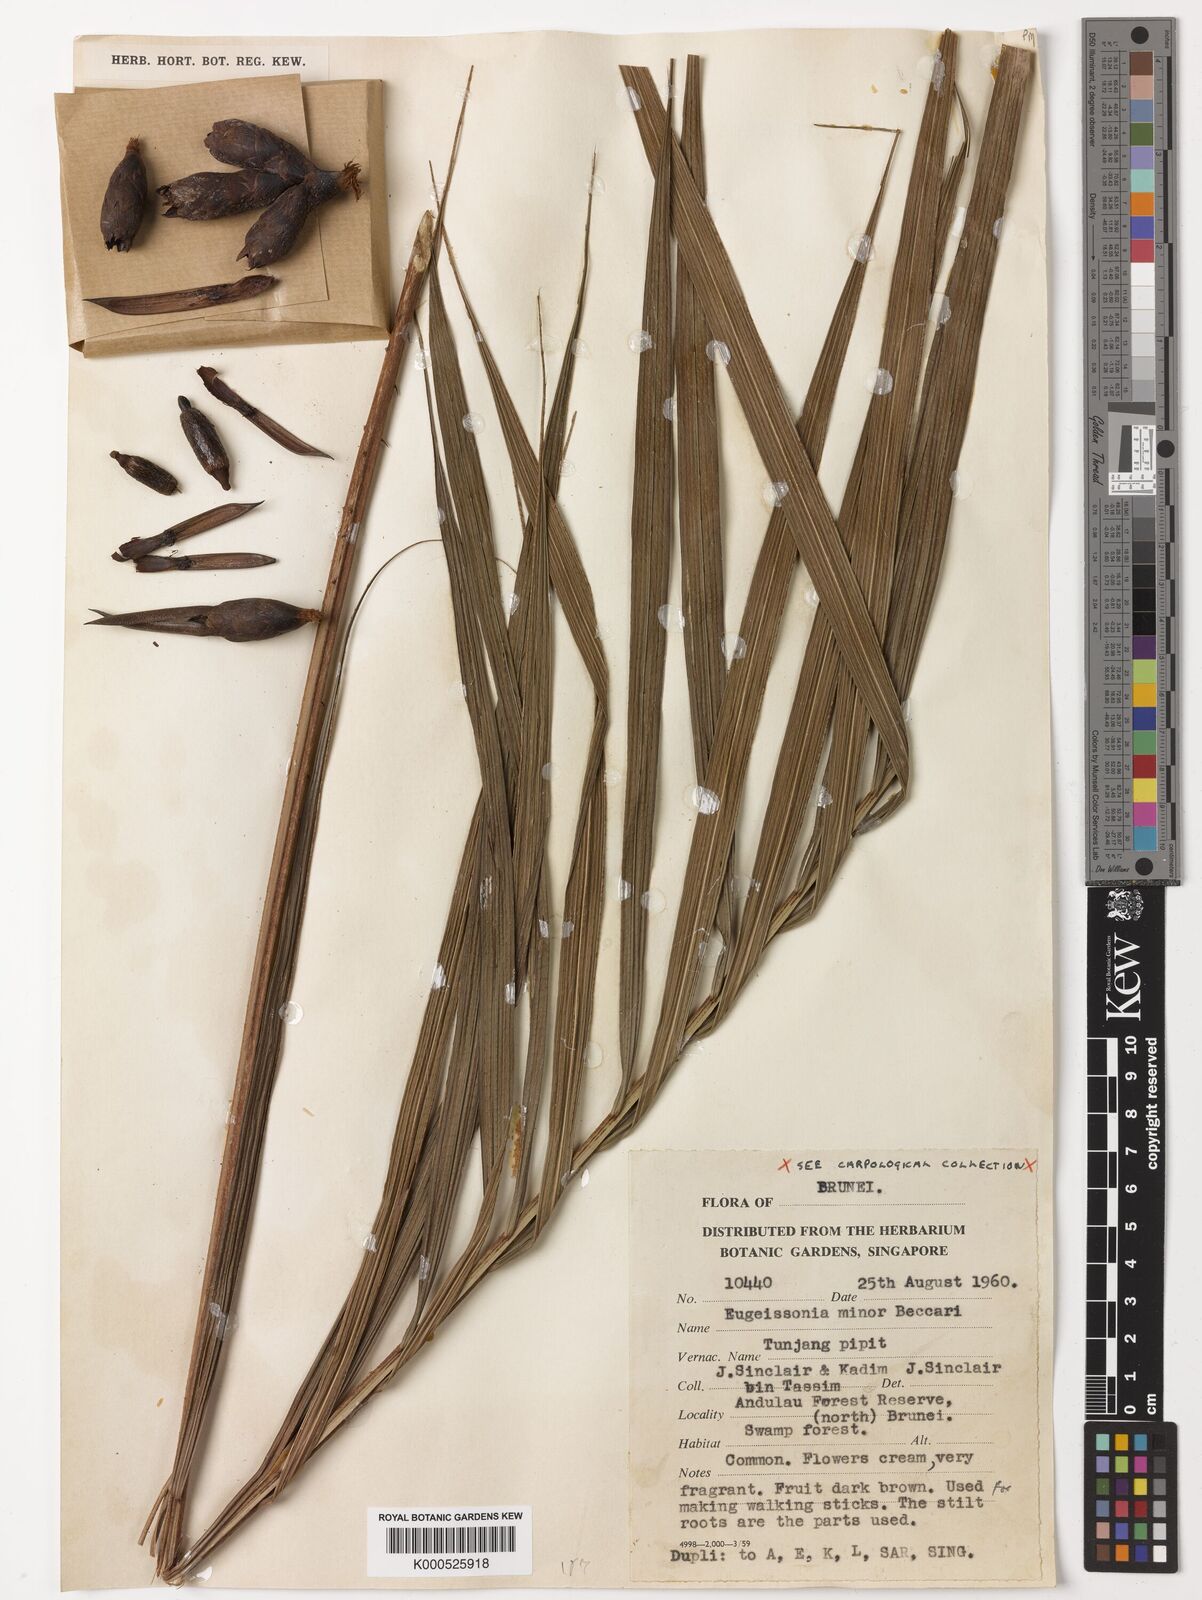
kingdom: Plantae
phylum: Tracheophyta
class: Liliopsida
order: Arecales
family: Arecaceae
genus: Eugeissona
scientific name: Eugeissona minor
